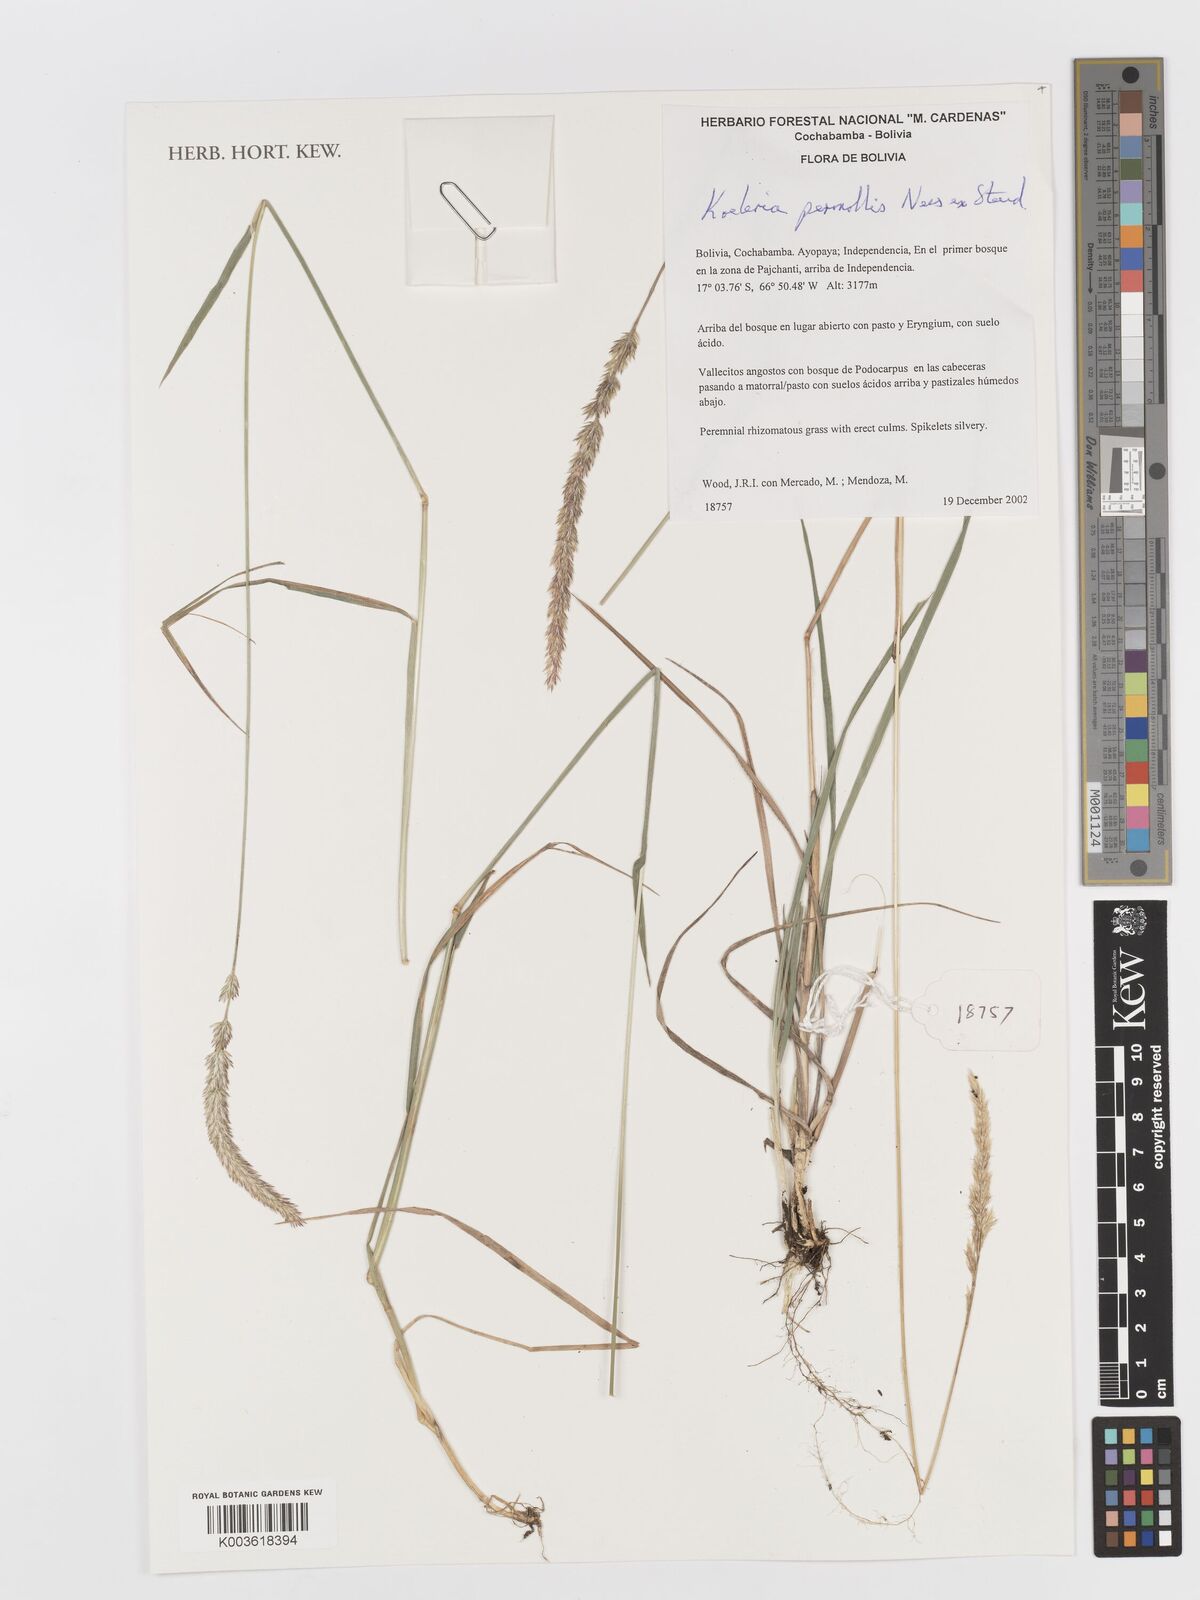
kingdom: Plantae
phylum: Tracheophyta
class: Liliopsida
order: Poales
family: Poaceae
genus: Koeleria
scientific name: Koeleria permollis
